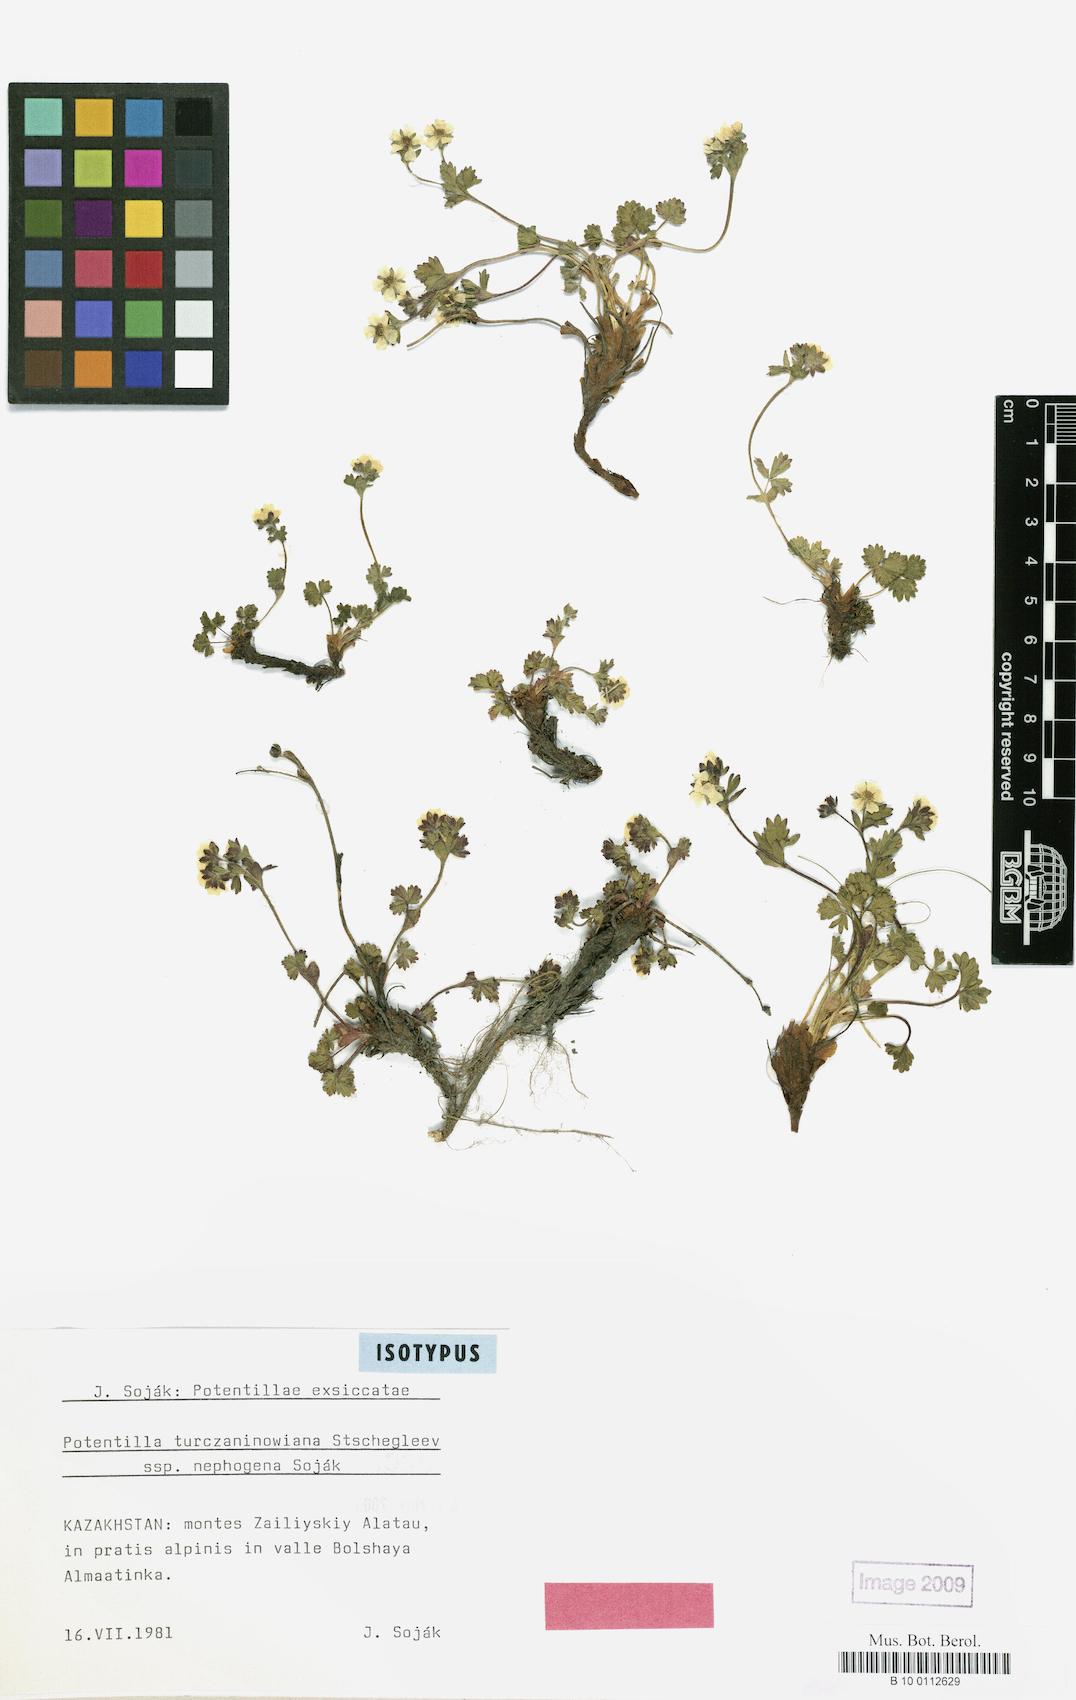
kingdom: Plantae
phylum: Tracheophyta
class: Magnoliopsida
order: Rosales
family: Rosaceae
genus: Potentilla
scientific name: Potentilla turczaninowiana
